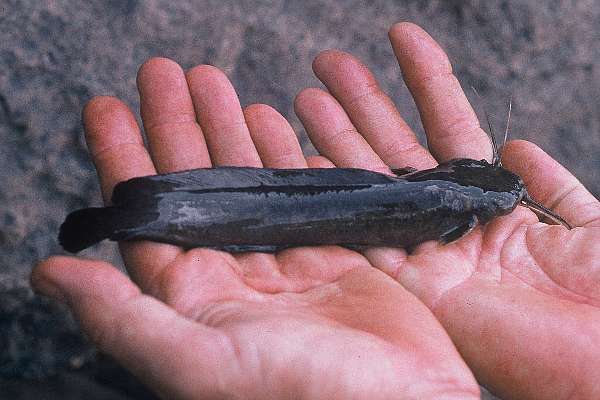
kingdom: Animalia
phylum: Chordata
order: Siluriformes
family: Clariidae
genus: Clariallabes
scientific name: Clariallabes platyprosopos
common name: Broadhead catfish
